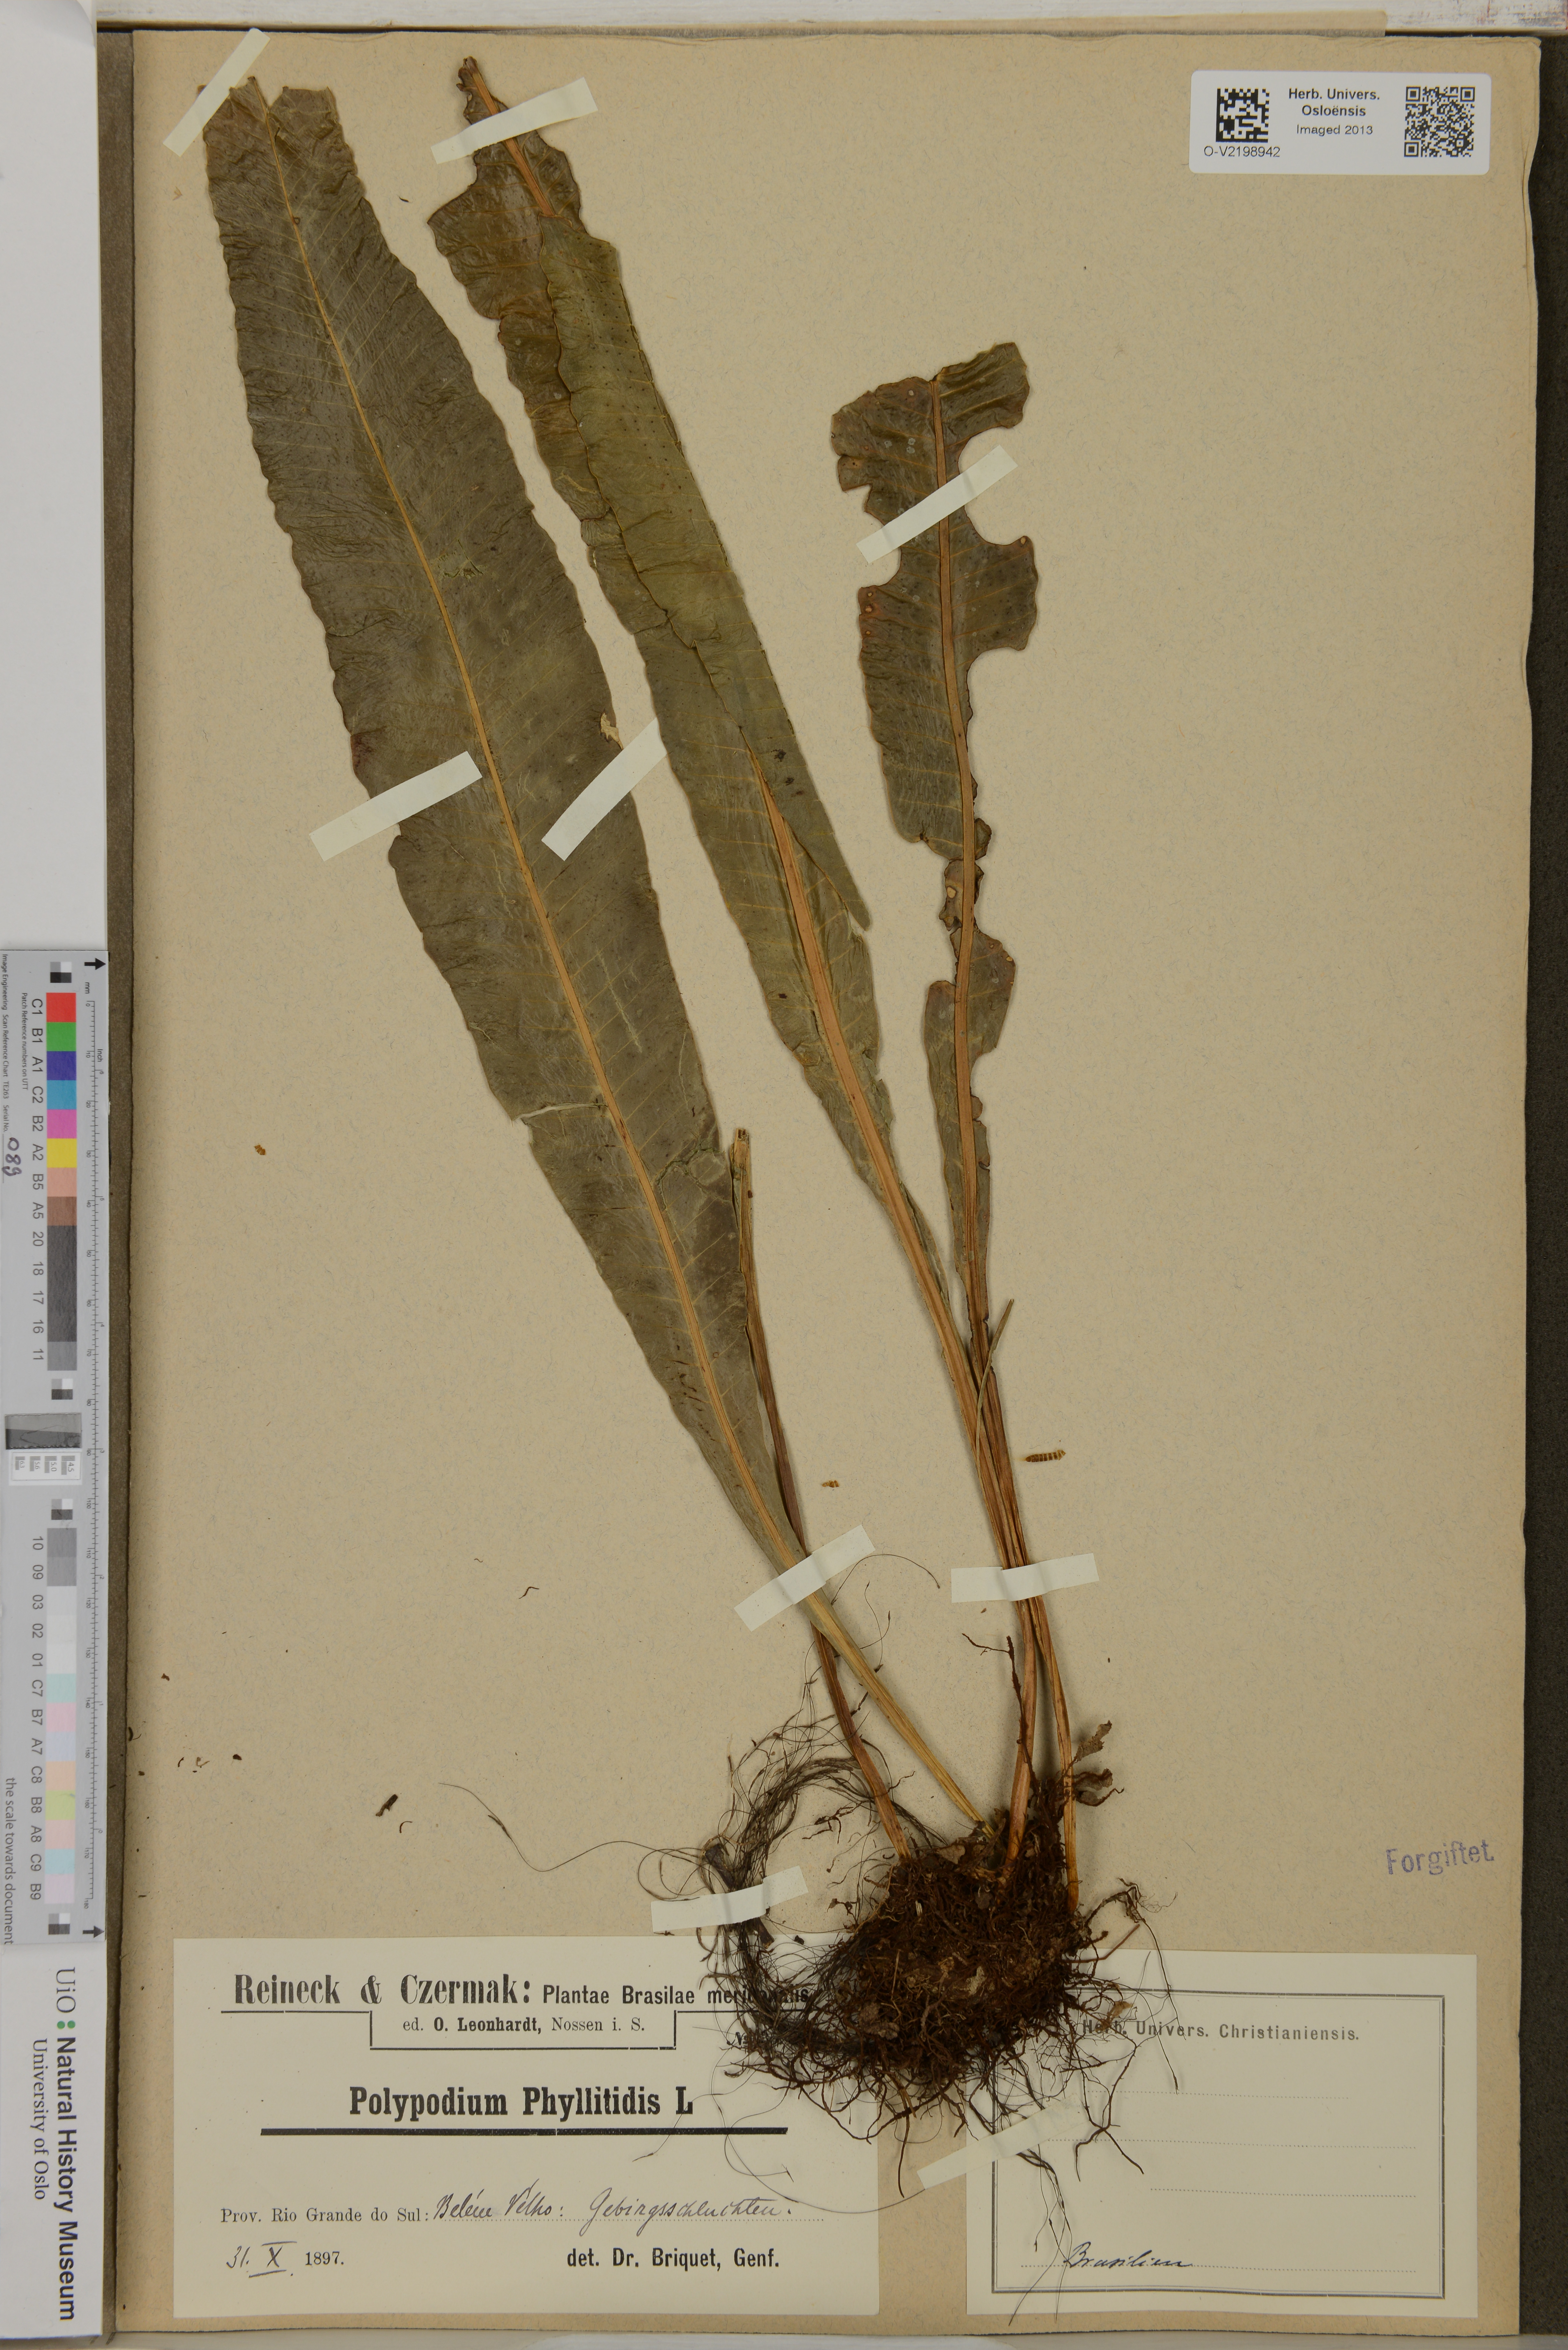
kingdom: Plantae
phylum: Tracheophyta
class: Polypodiopsida
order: Polypodiales
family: Polypodiaceae
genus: Polypodium
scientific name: Polypodium phyllitidis
